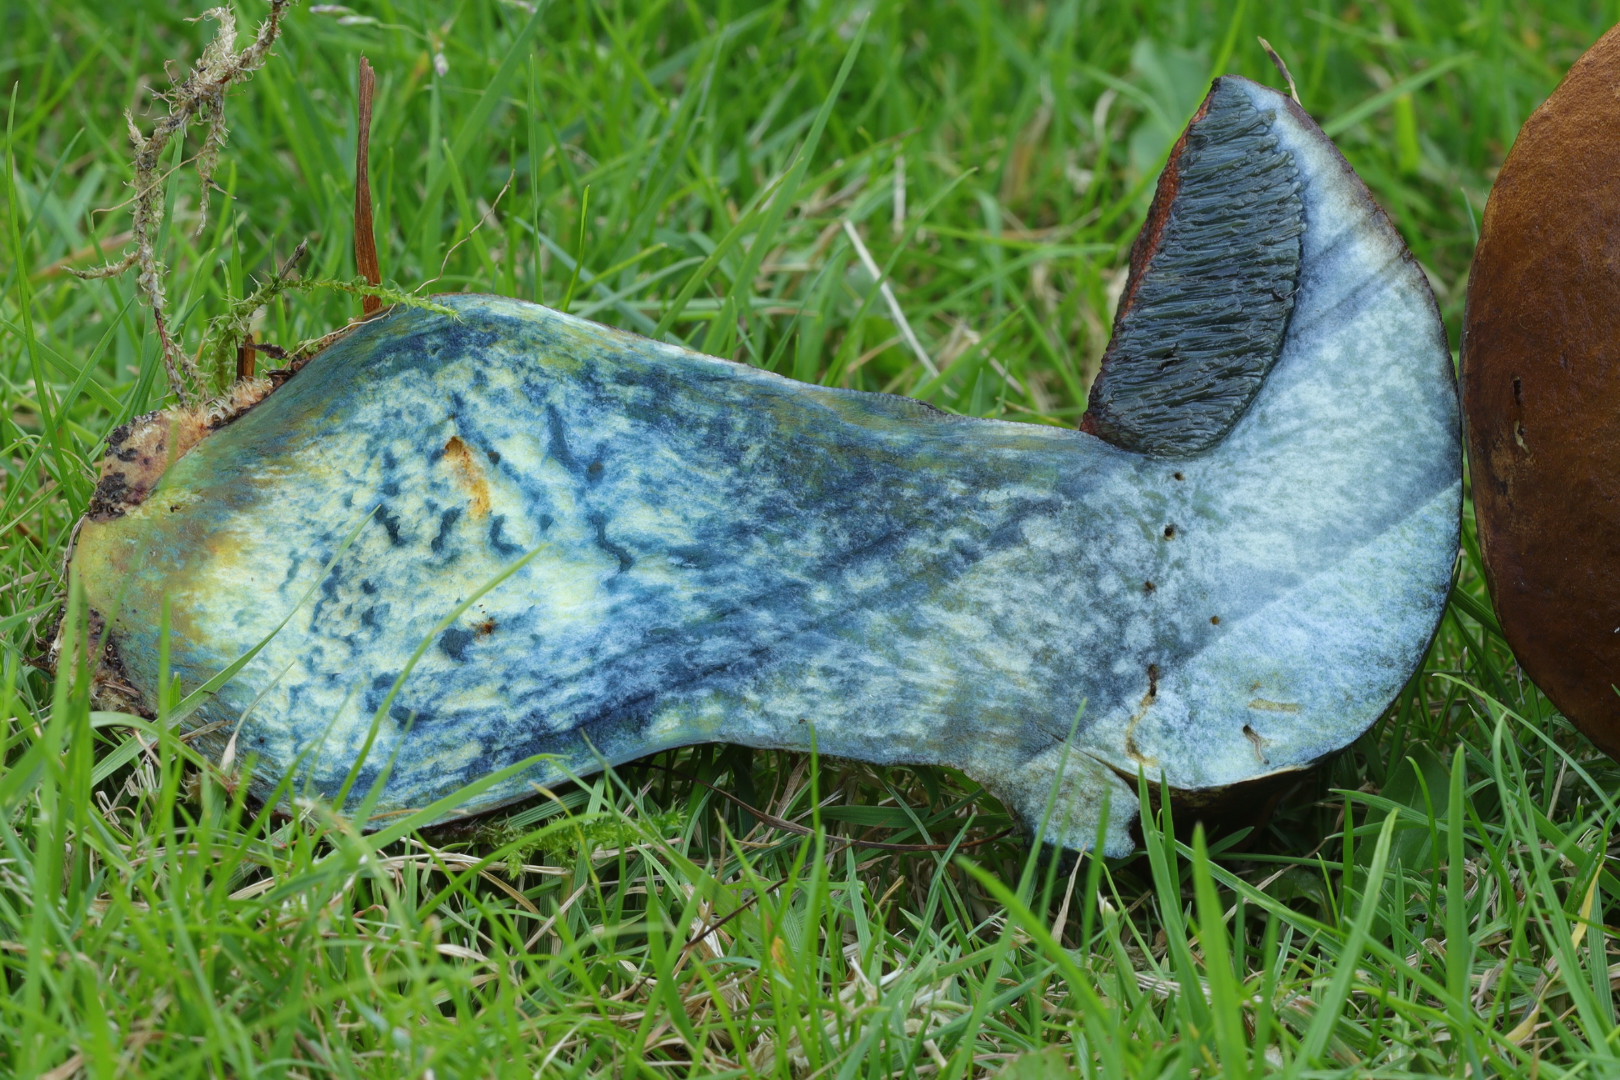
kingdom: Fungi
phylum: Basidiomycota
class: Agaricomycetes
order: Boletales
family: Boletaceae
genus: Neoboletus
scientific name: Neoboletus
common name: indigorørhat
